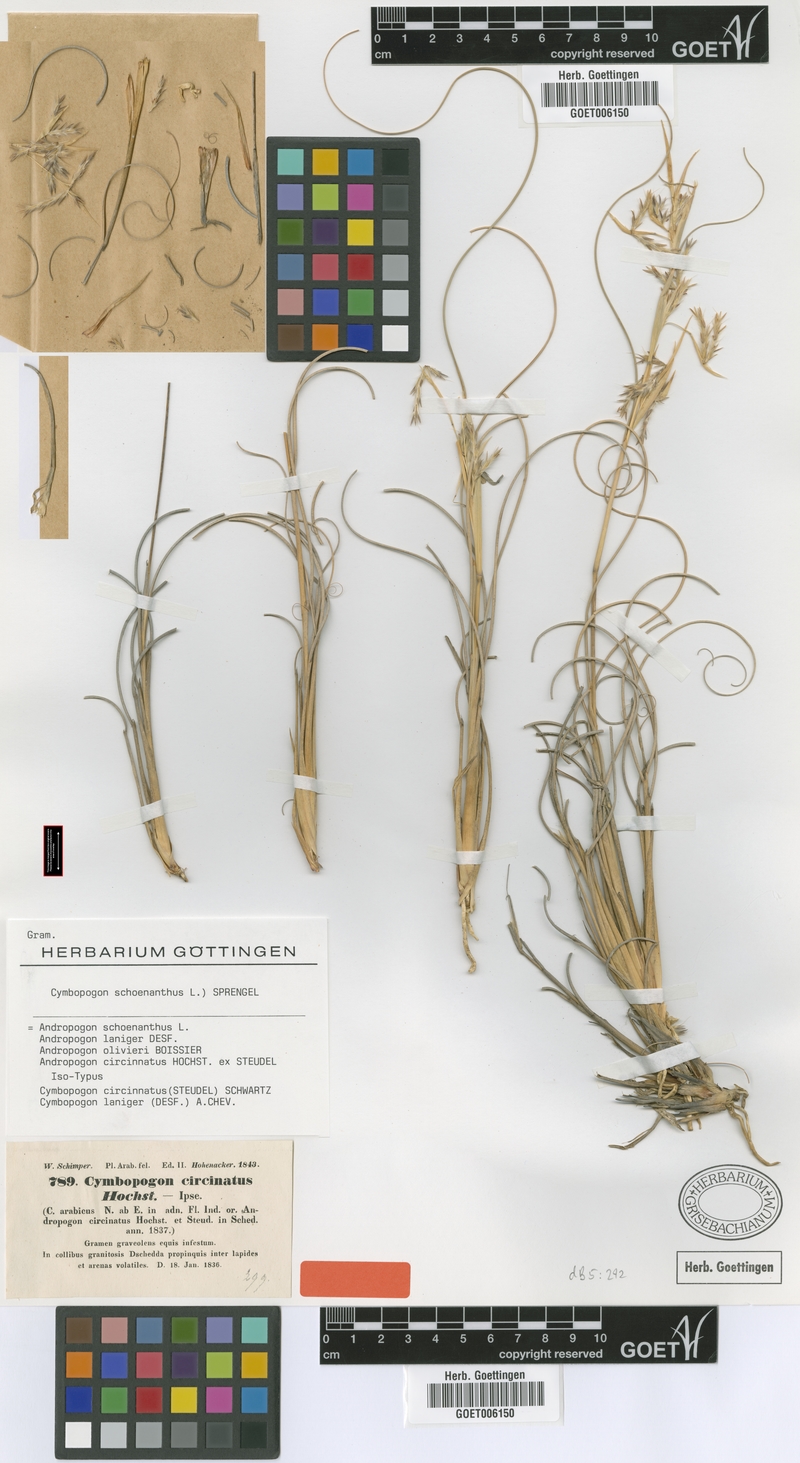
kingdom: Plantae
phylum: Tracheophyta
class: Liliopsida
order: Poales
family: Poaceae
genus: Cymbopogon
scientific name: Cymbopogon schoenanthus
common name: Geranium grass
